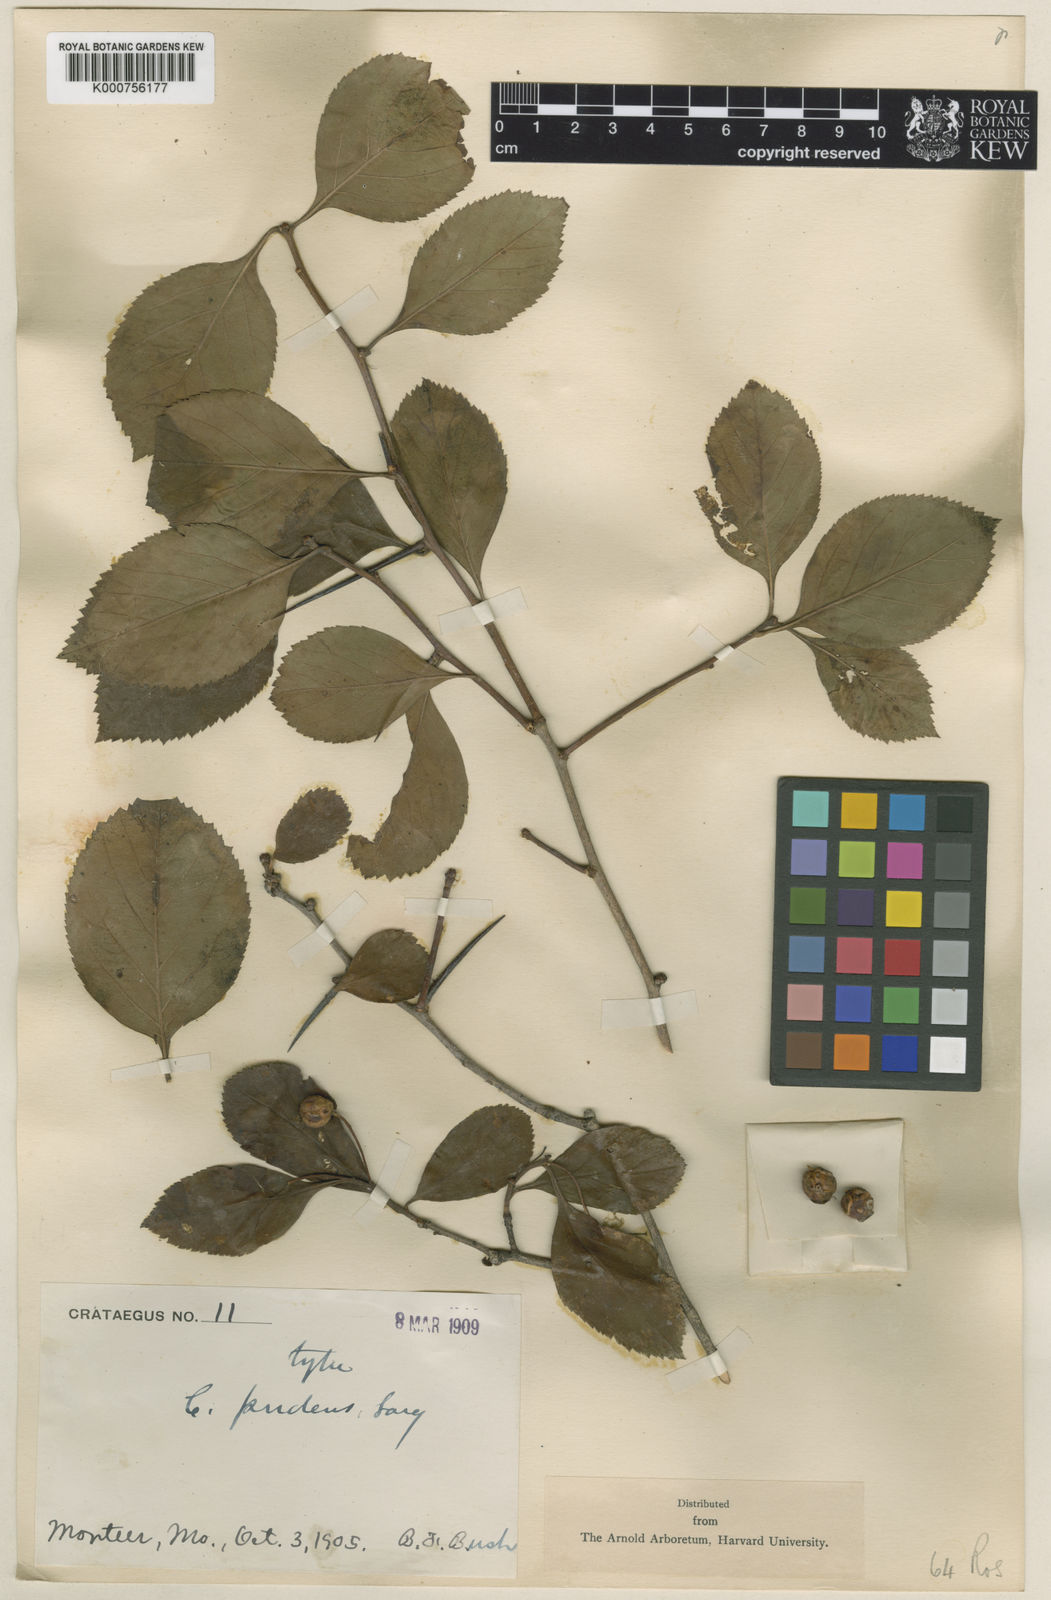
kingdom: Plantae
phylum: Tracheophyta
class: Magnoliopsida
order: Rosales
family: Rosaceae
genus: Crataegus
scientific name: Crataegus pudens
